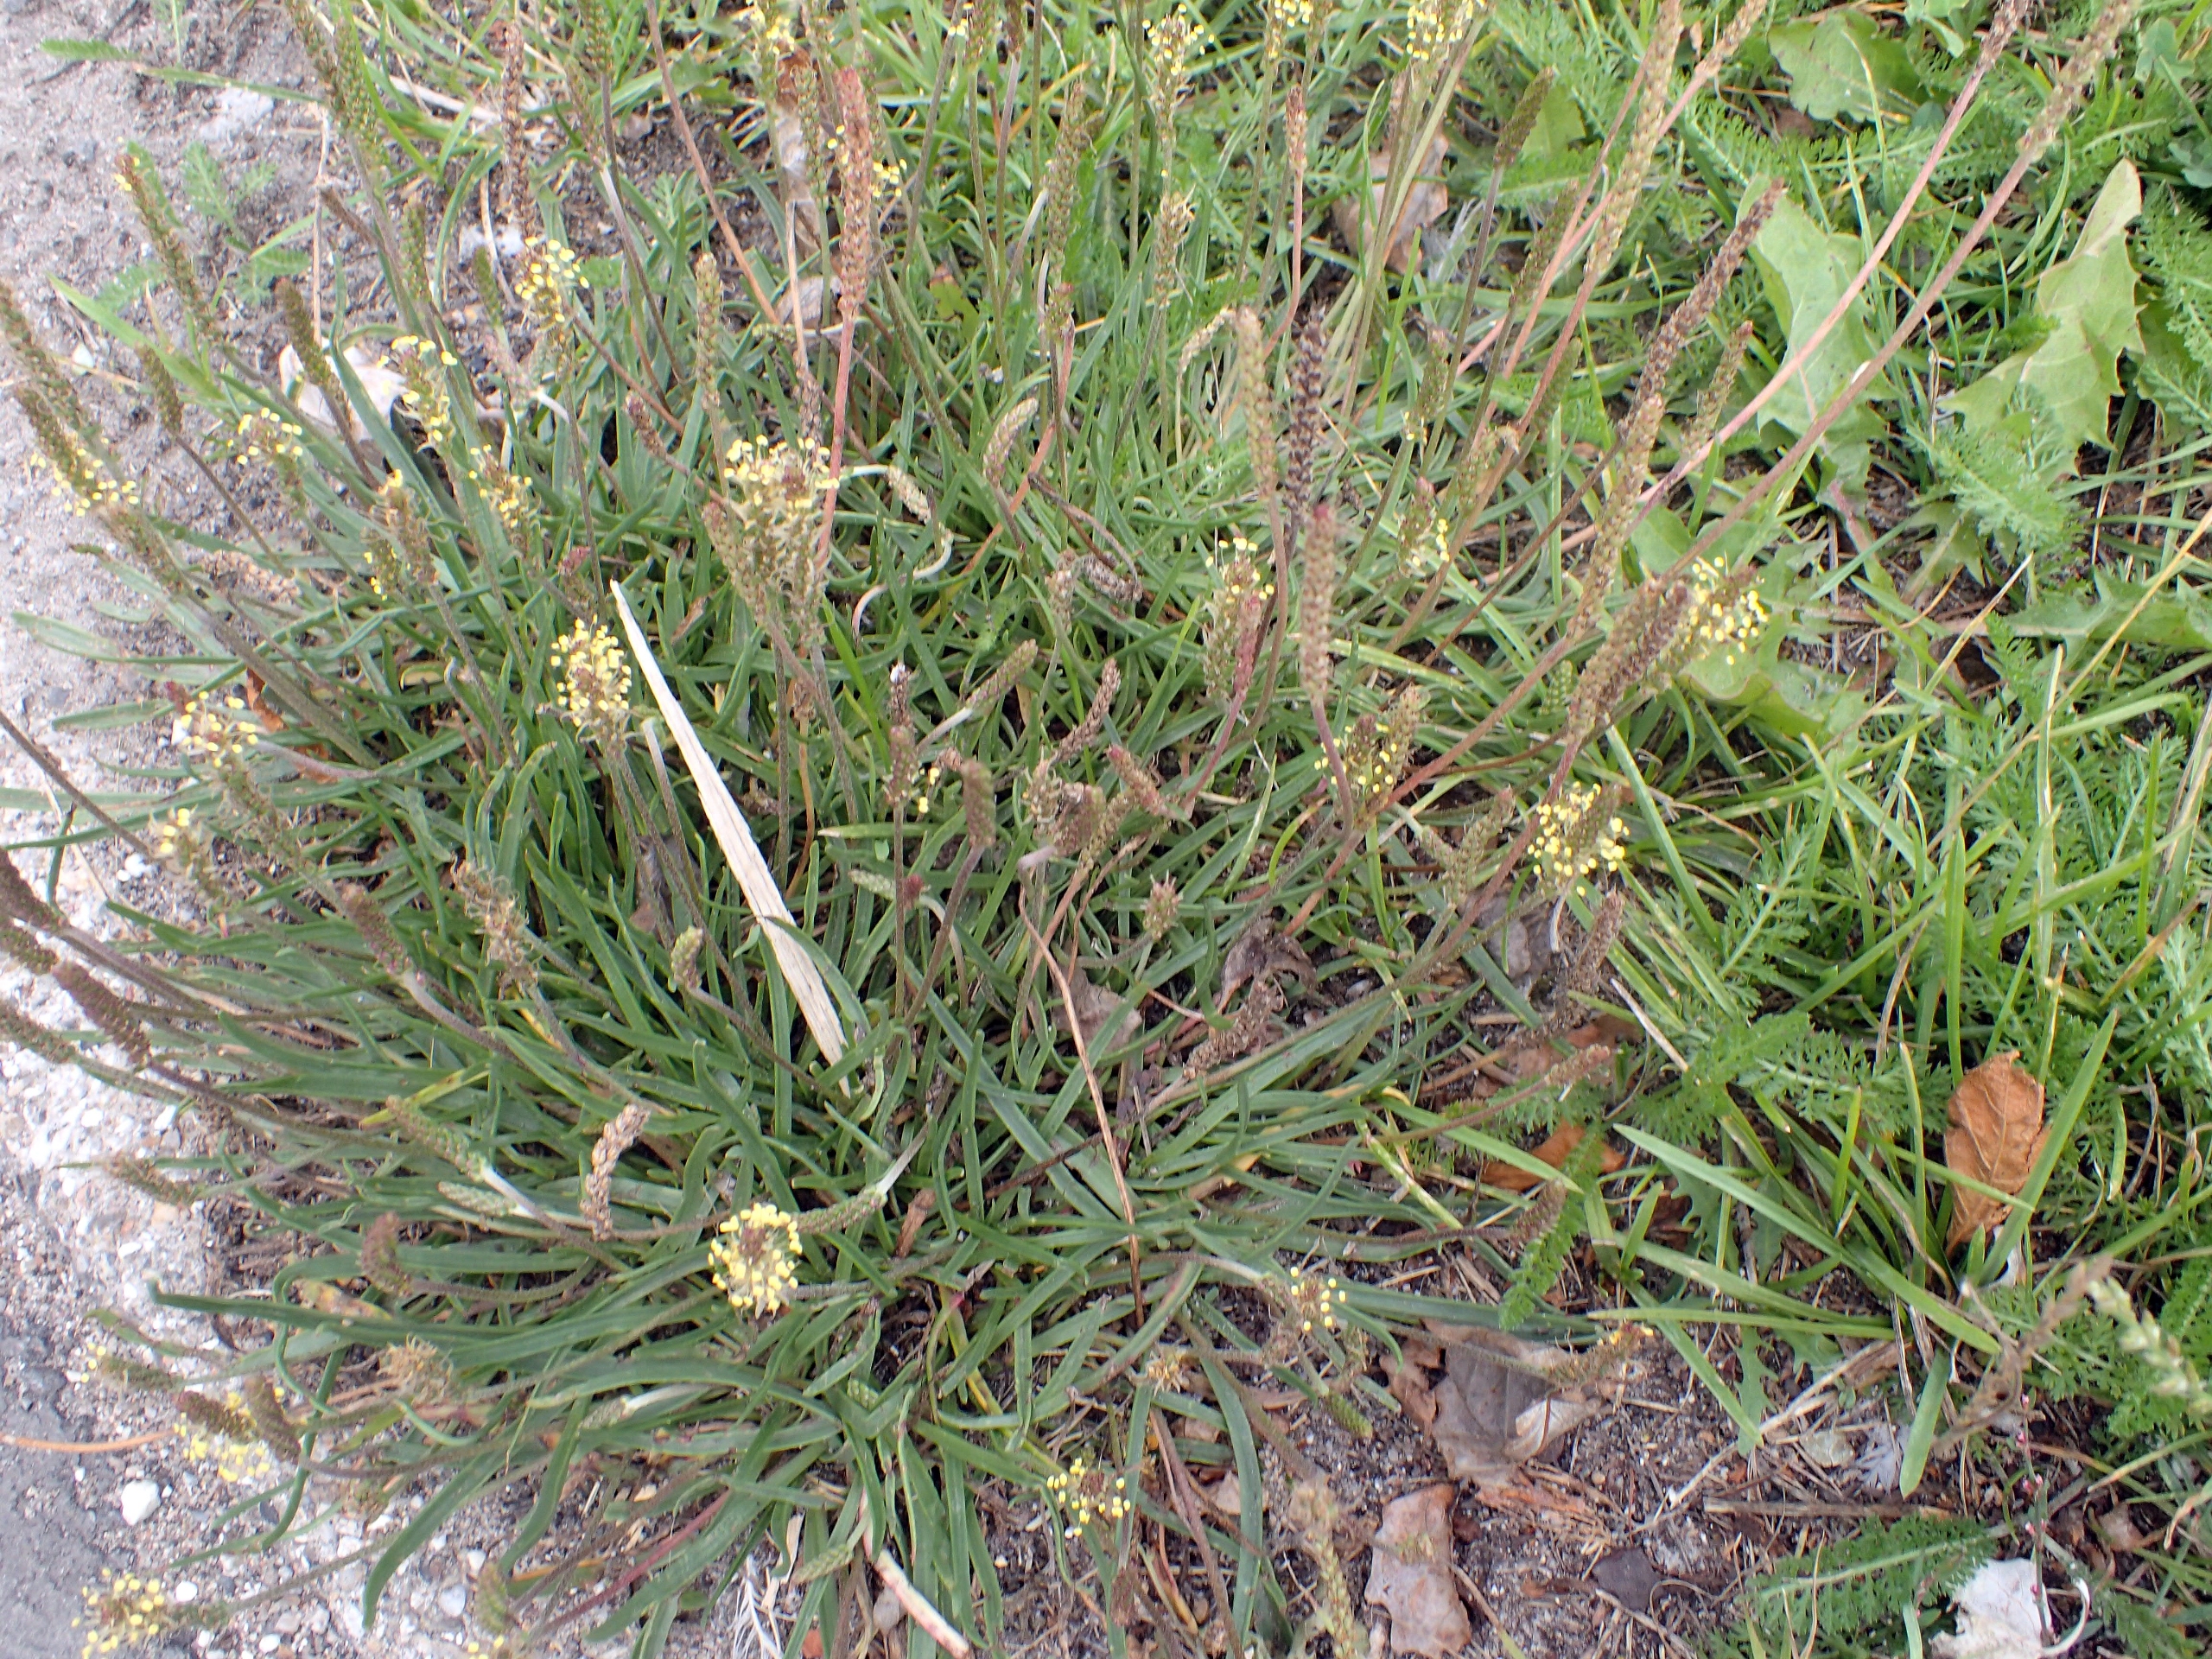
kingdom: Plantae
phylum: Tracheophyta
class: Magnoliopsida
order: Lamiales
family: Plantaginaceae
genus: Plantago
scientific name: Plantago maritima
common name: Strand-vejbred
